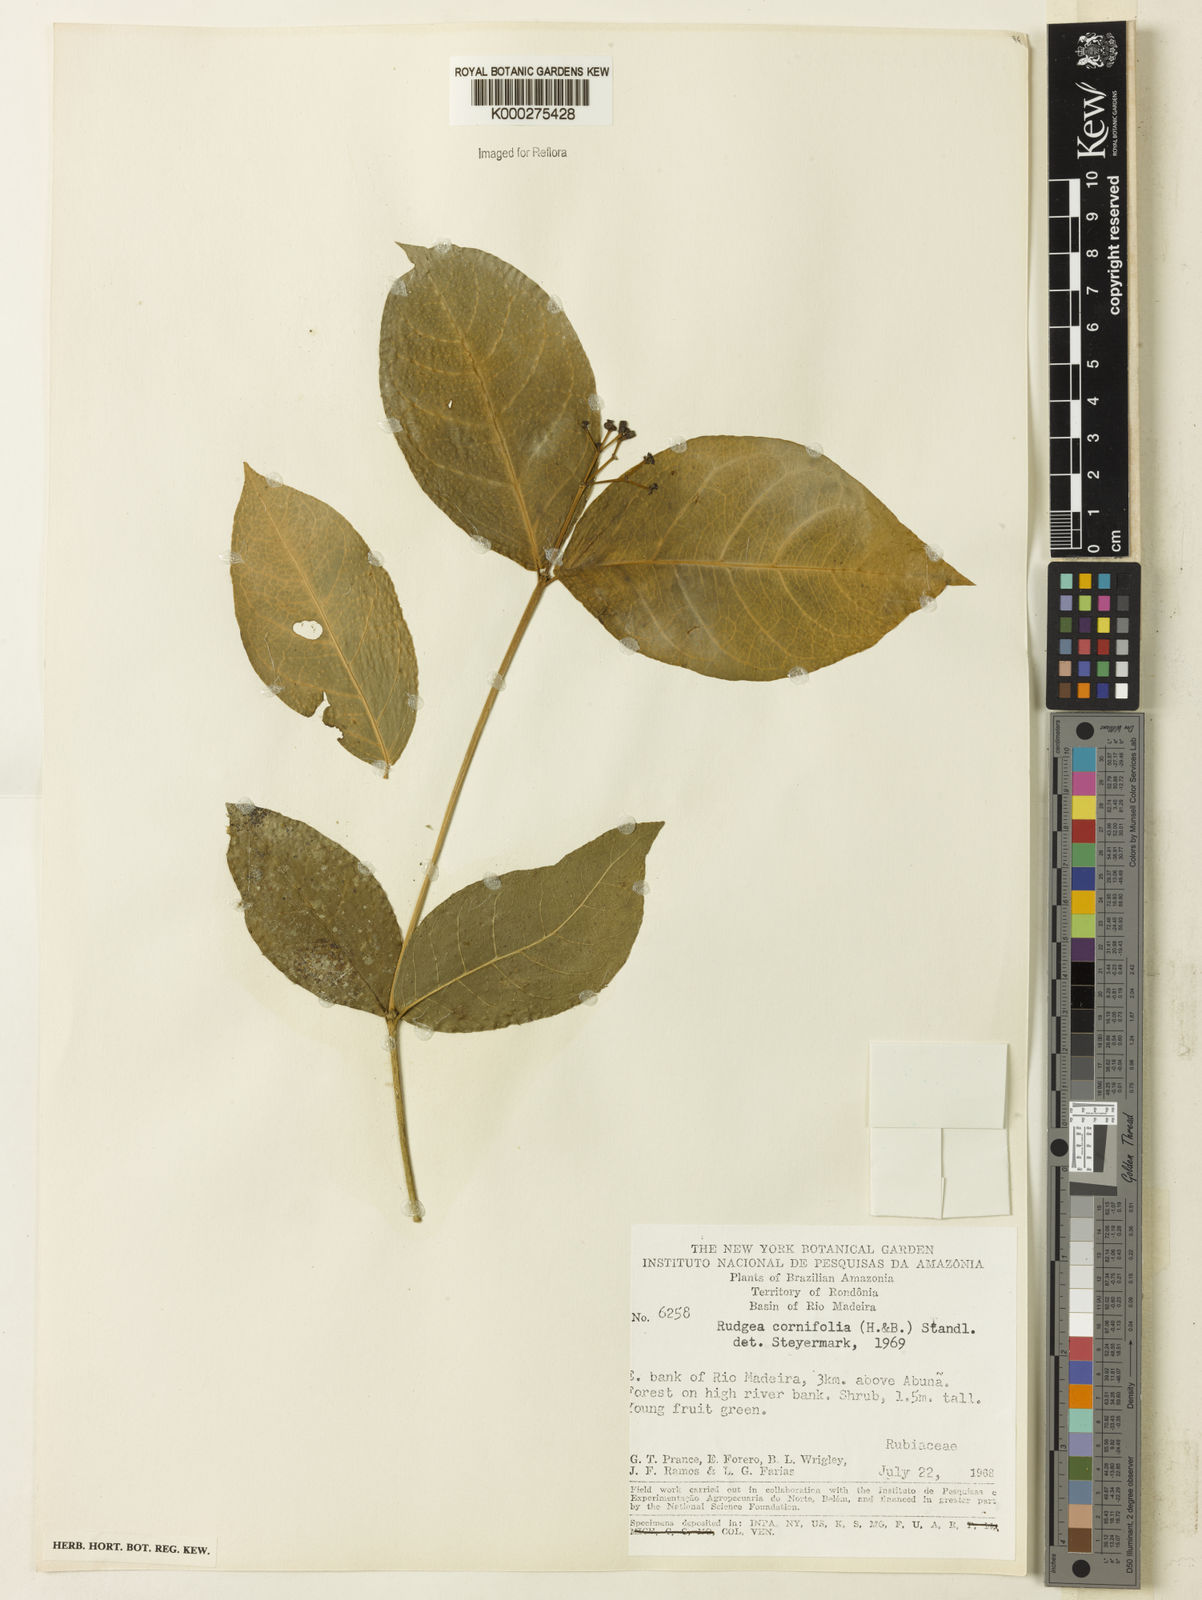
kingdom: Plantae
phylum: Tracheophyta
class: Magnoliopsida
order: Gentianales
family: Rubiaceae
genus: Rudgea
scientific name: Rudgea cornifolia
